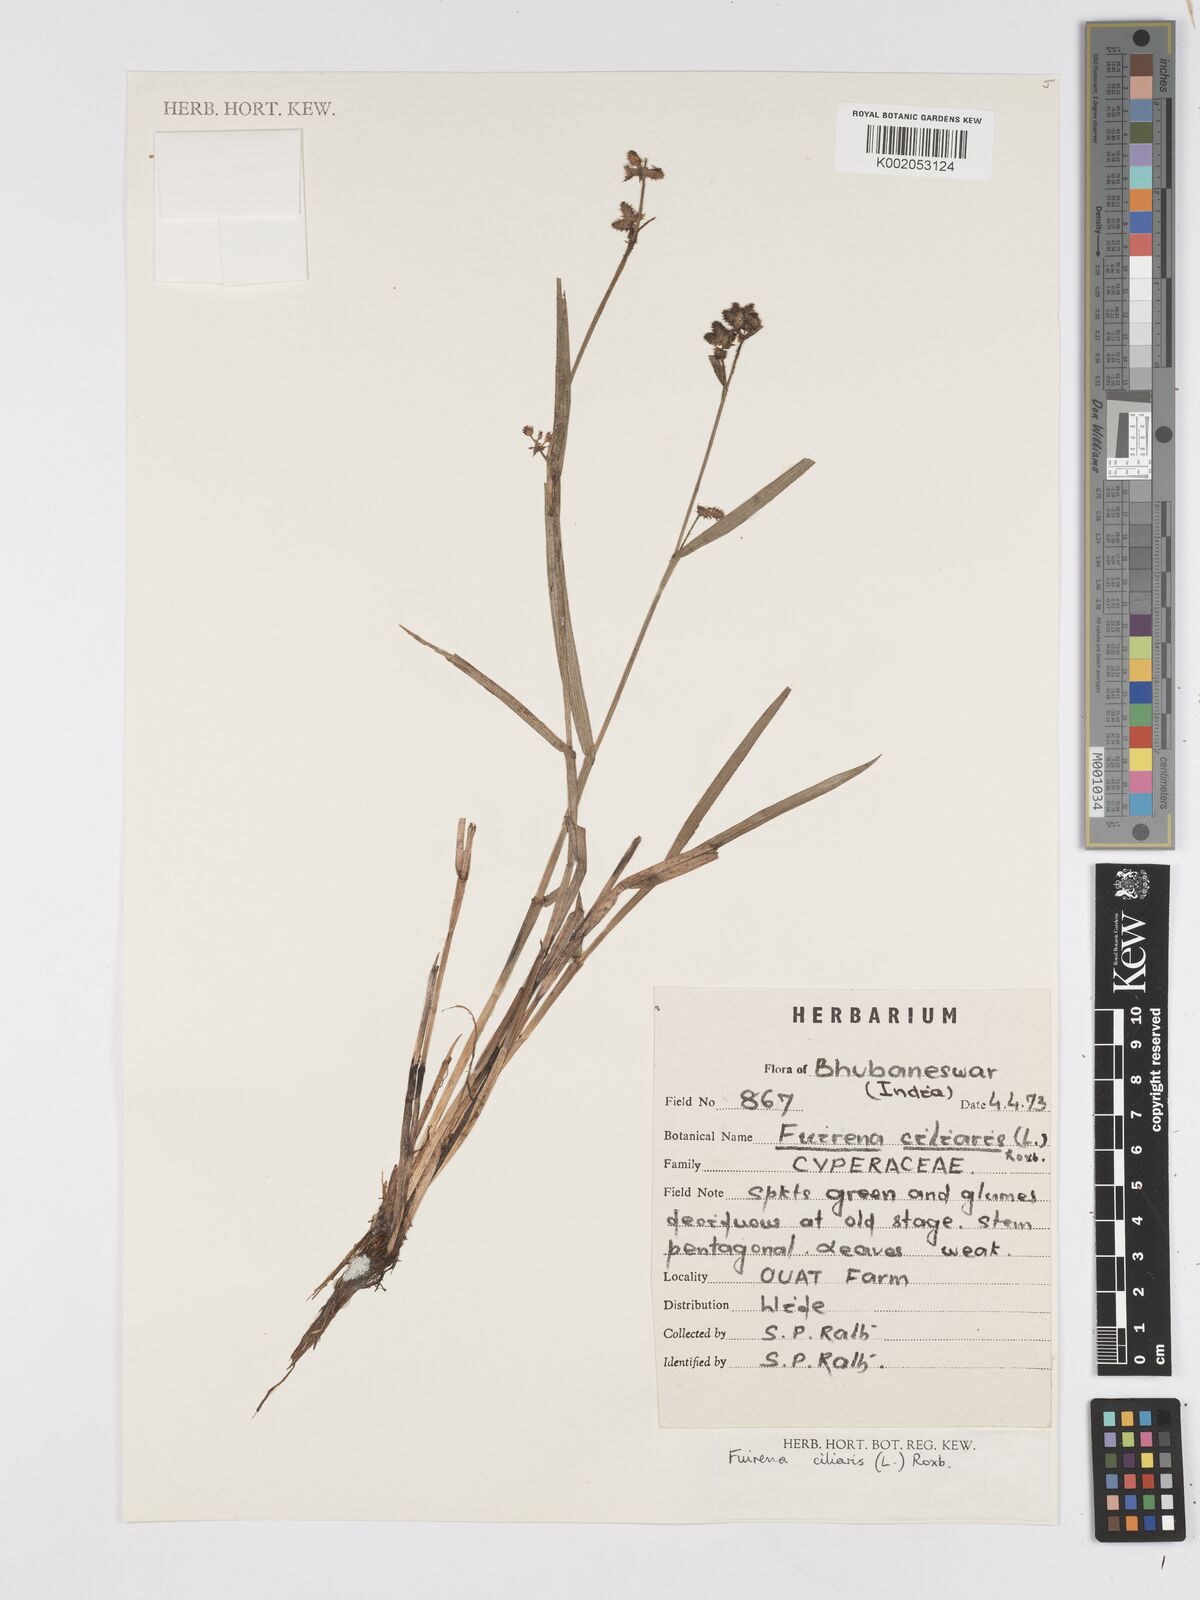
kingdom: Plantae
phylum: Tracheophyta
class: Liliopsida
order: Poales
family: Cyperaceae
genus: Fuirena
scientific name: Fuirena ciliaris
